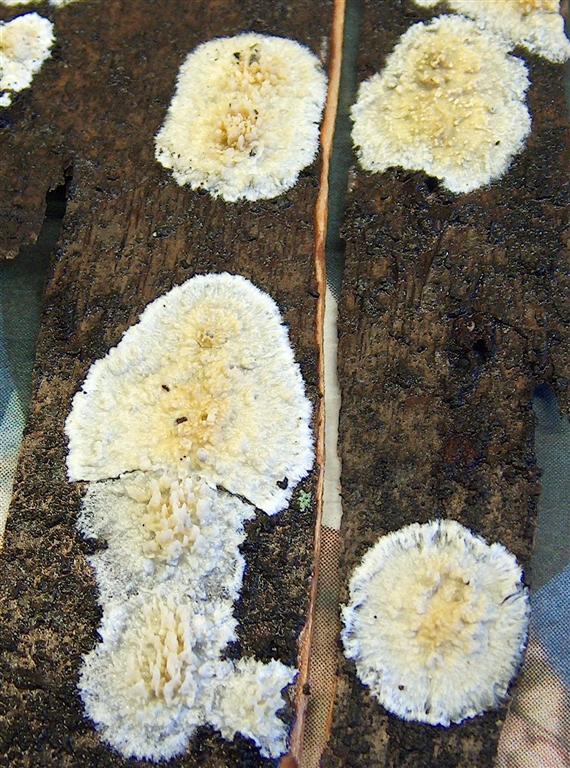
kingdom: Fungi
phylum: Basidiomycota
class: Agaricomycetes
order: Hymenochaetales
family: Schizoporaceae
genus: Xylodon
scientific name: Xylodon radula
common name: grovtandet kalkskind
